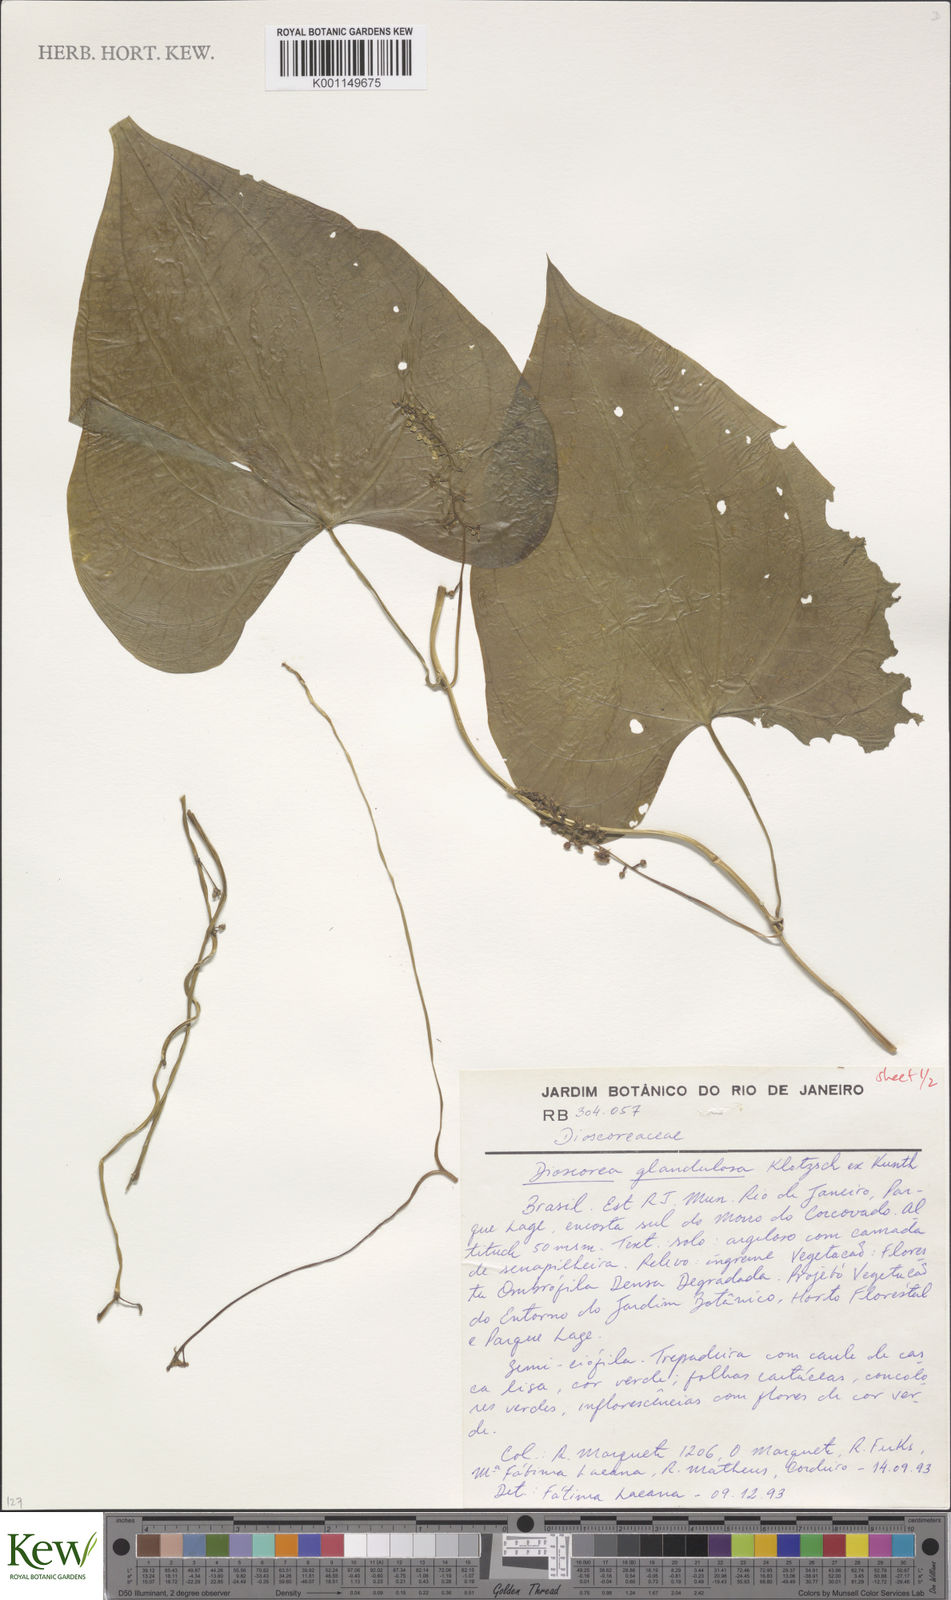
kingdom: Plantae
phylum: Tracheophyta
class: Liliopsida
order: Dioscoreales
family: Dioscoreaceae
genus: Dioscorea
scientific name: Dioscorea glandulosa
